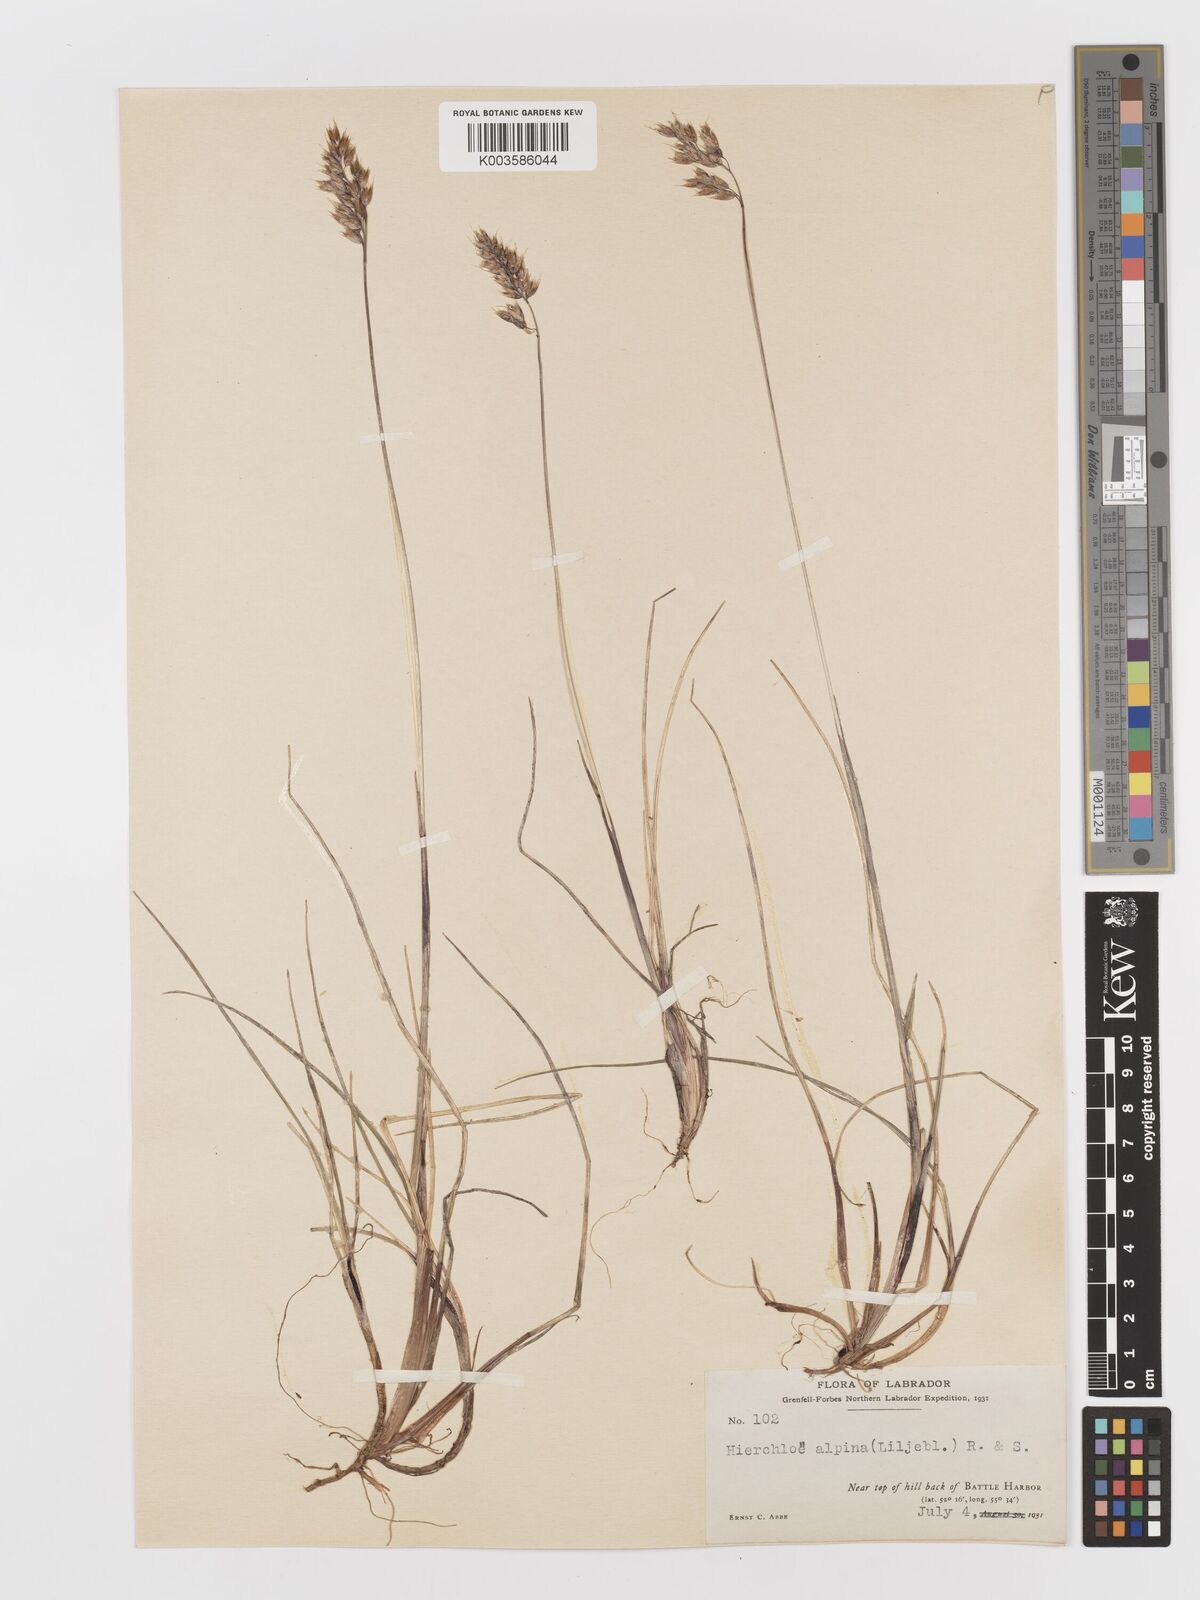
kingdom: Plantae
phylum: Tracheophyta
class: Liliopsida
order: Poales
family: Poaceae
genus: Anthoxanthum
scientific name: Anthoxanthum monticola
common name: Alpine sweetgrass
